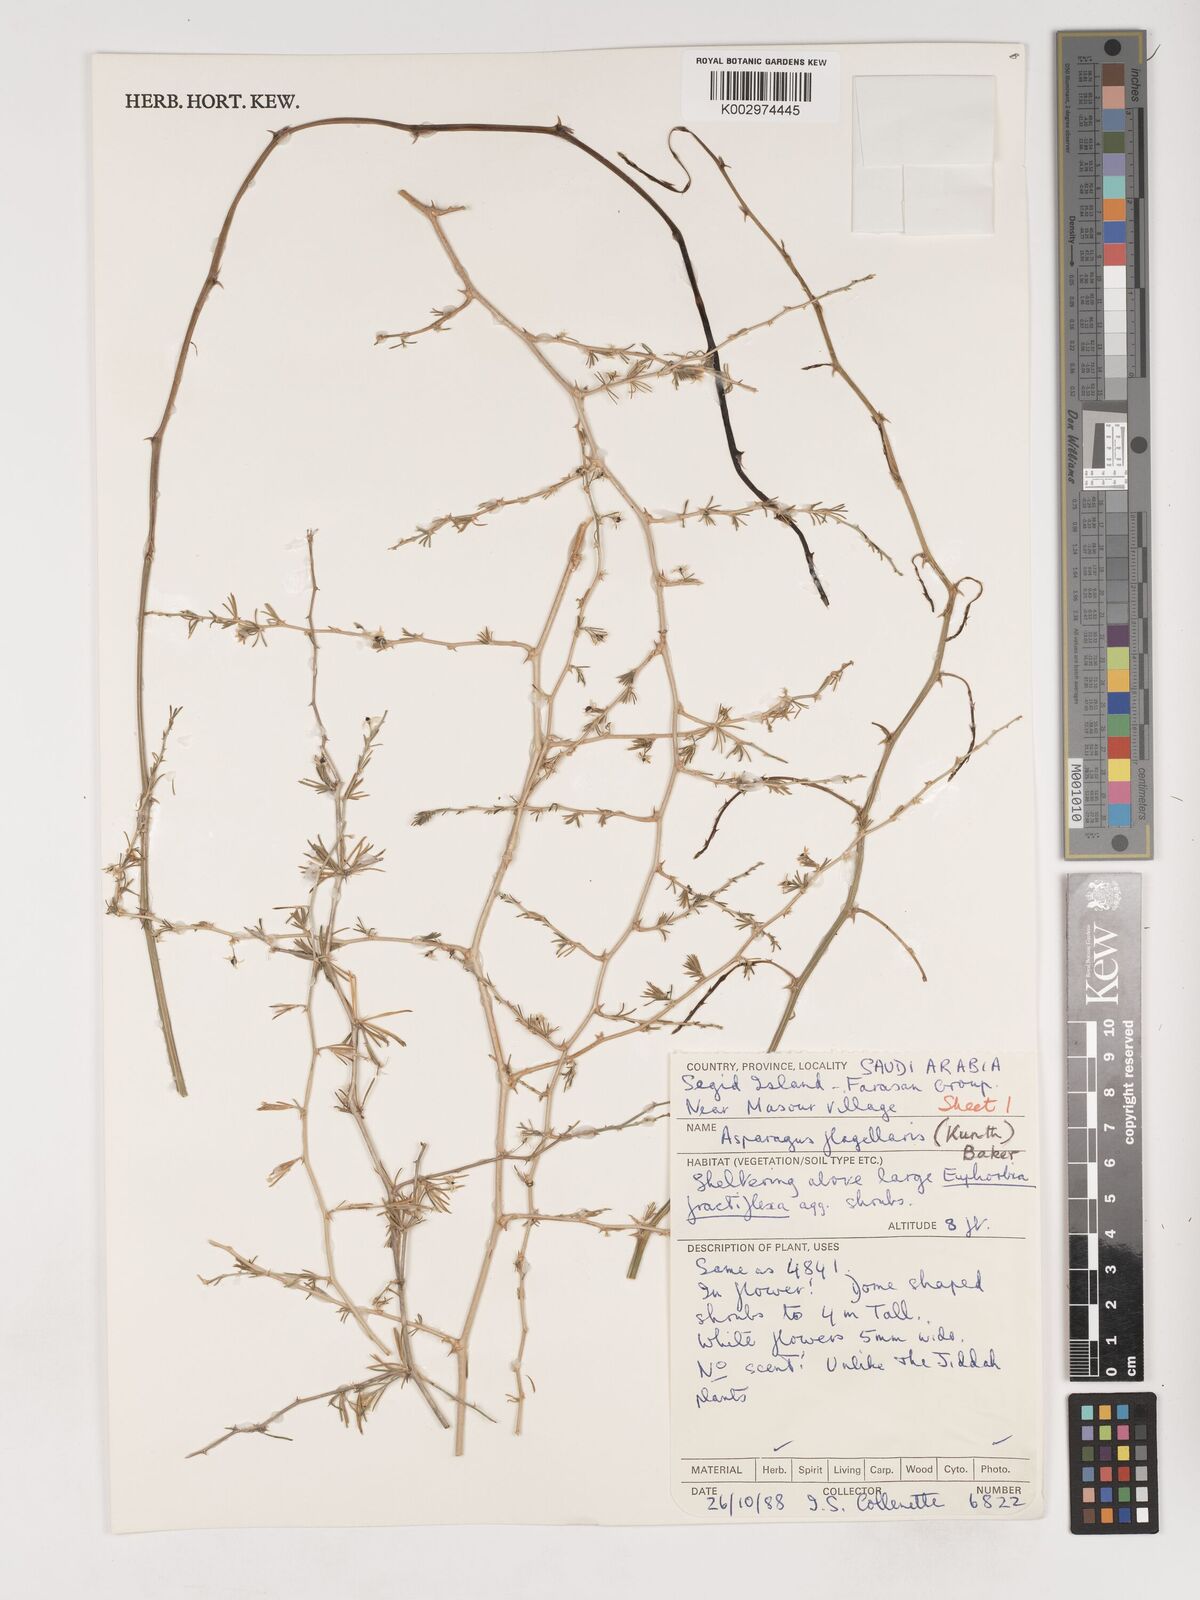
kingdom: Plantae
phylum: Tracheophyta
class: Liliopsida
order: Asparagales
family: Asparagaceae
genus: Asparagus
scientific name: Asparagus flagellaris
